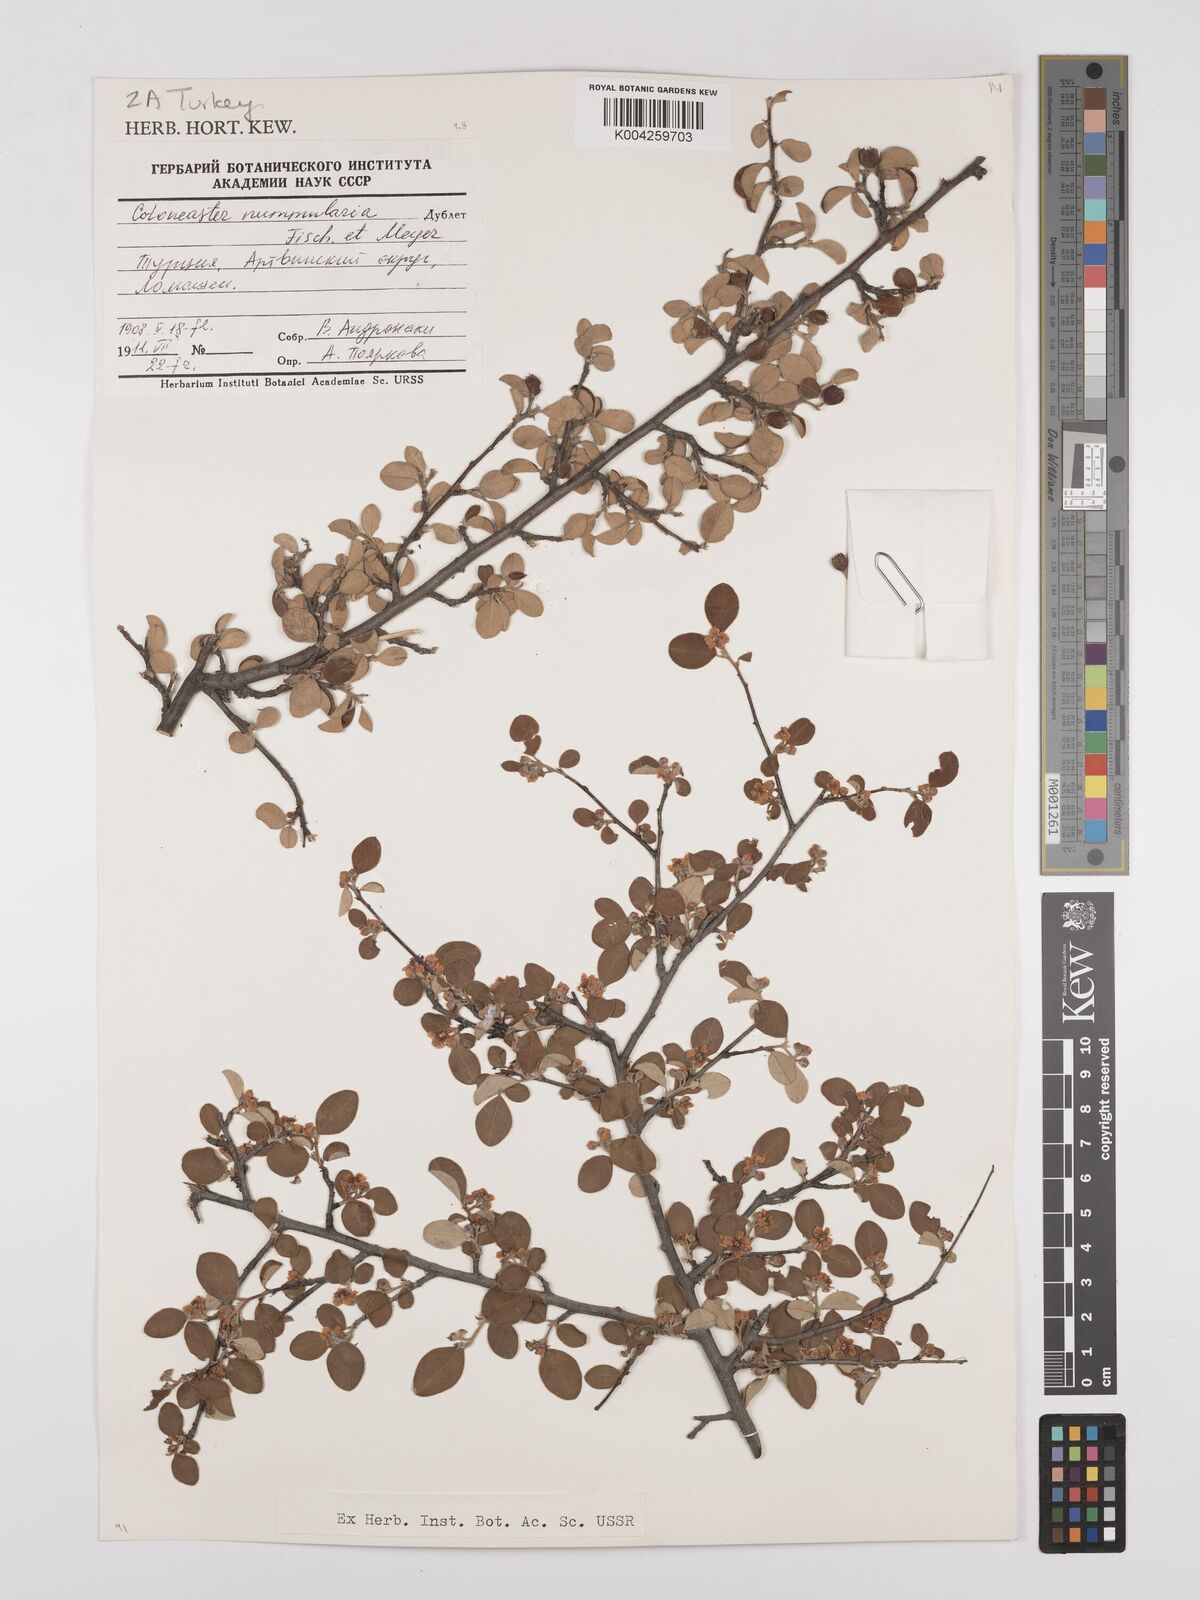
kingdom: Plantae
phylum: Tracheophyta
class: Magnoliopsida
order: Rosales
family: Rosaceae
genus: Cotoneaster
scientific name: Cotoneaster racemiflorus
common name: Cluster-flower cotoneaster
